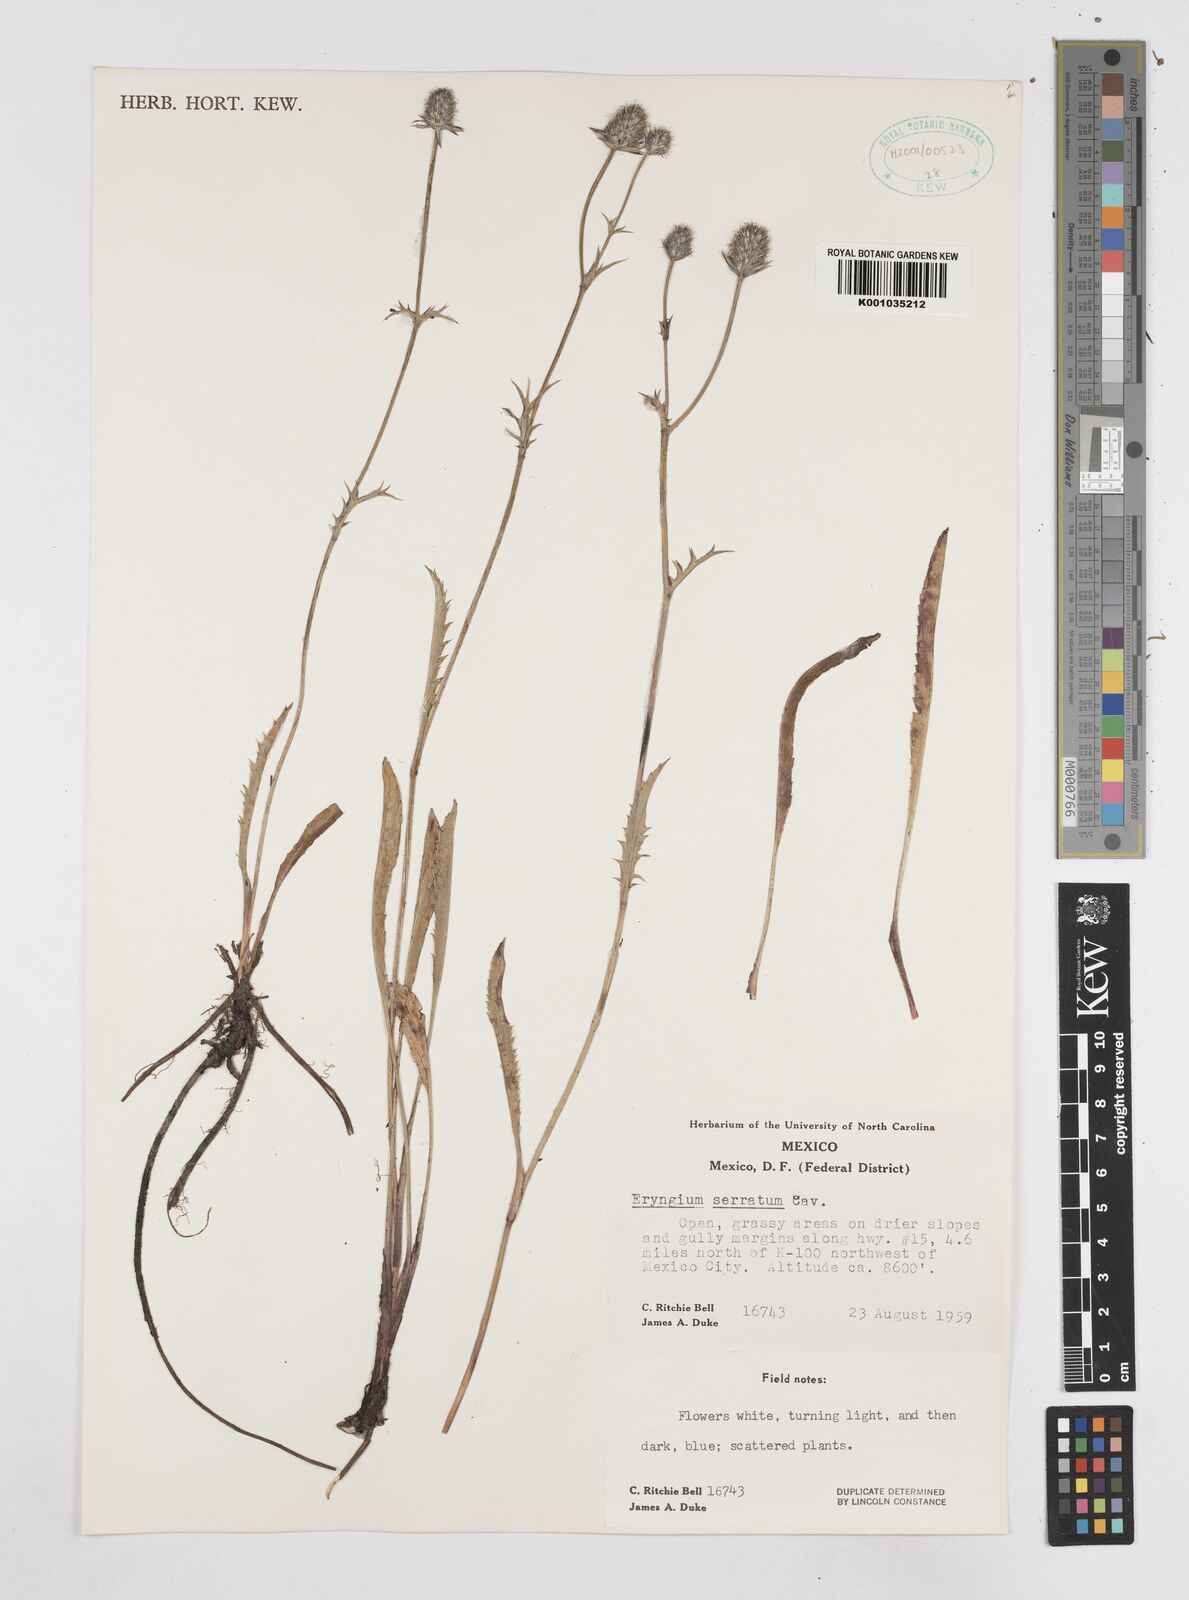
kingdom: Plantae
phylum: Tracheophyta
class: Magnoliopsida
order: Apiales
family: Apiaceae
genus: Eryngium
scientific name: Eryngium serratum
